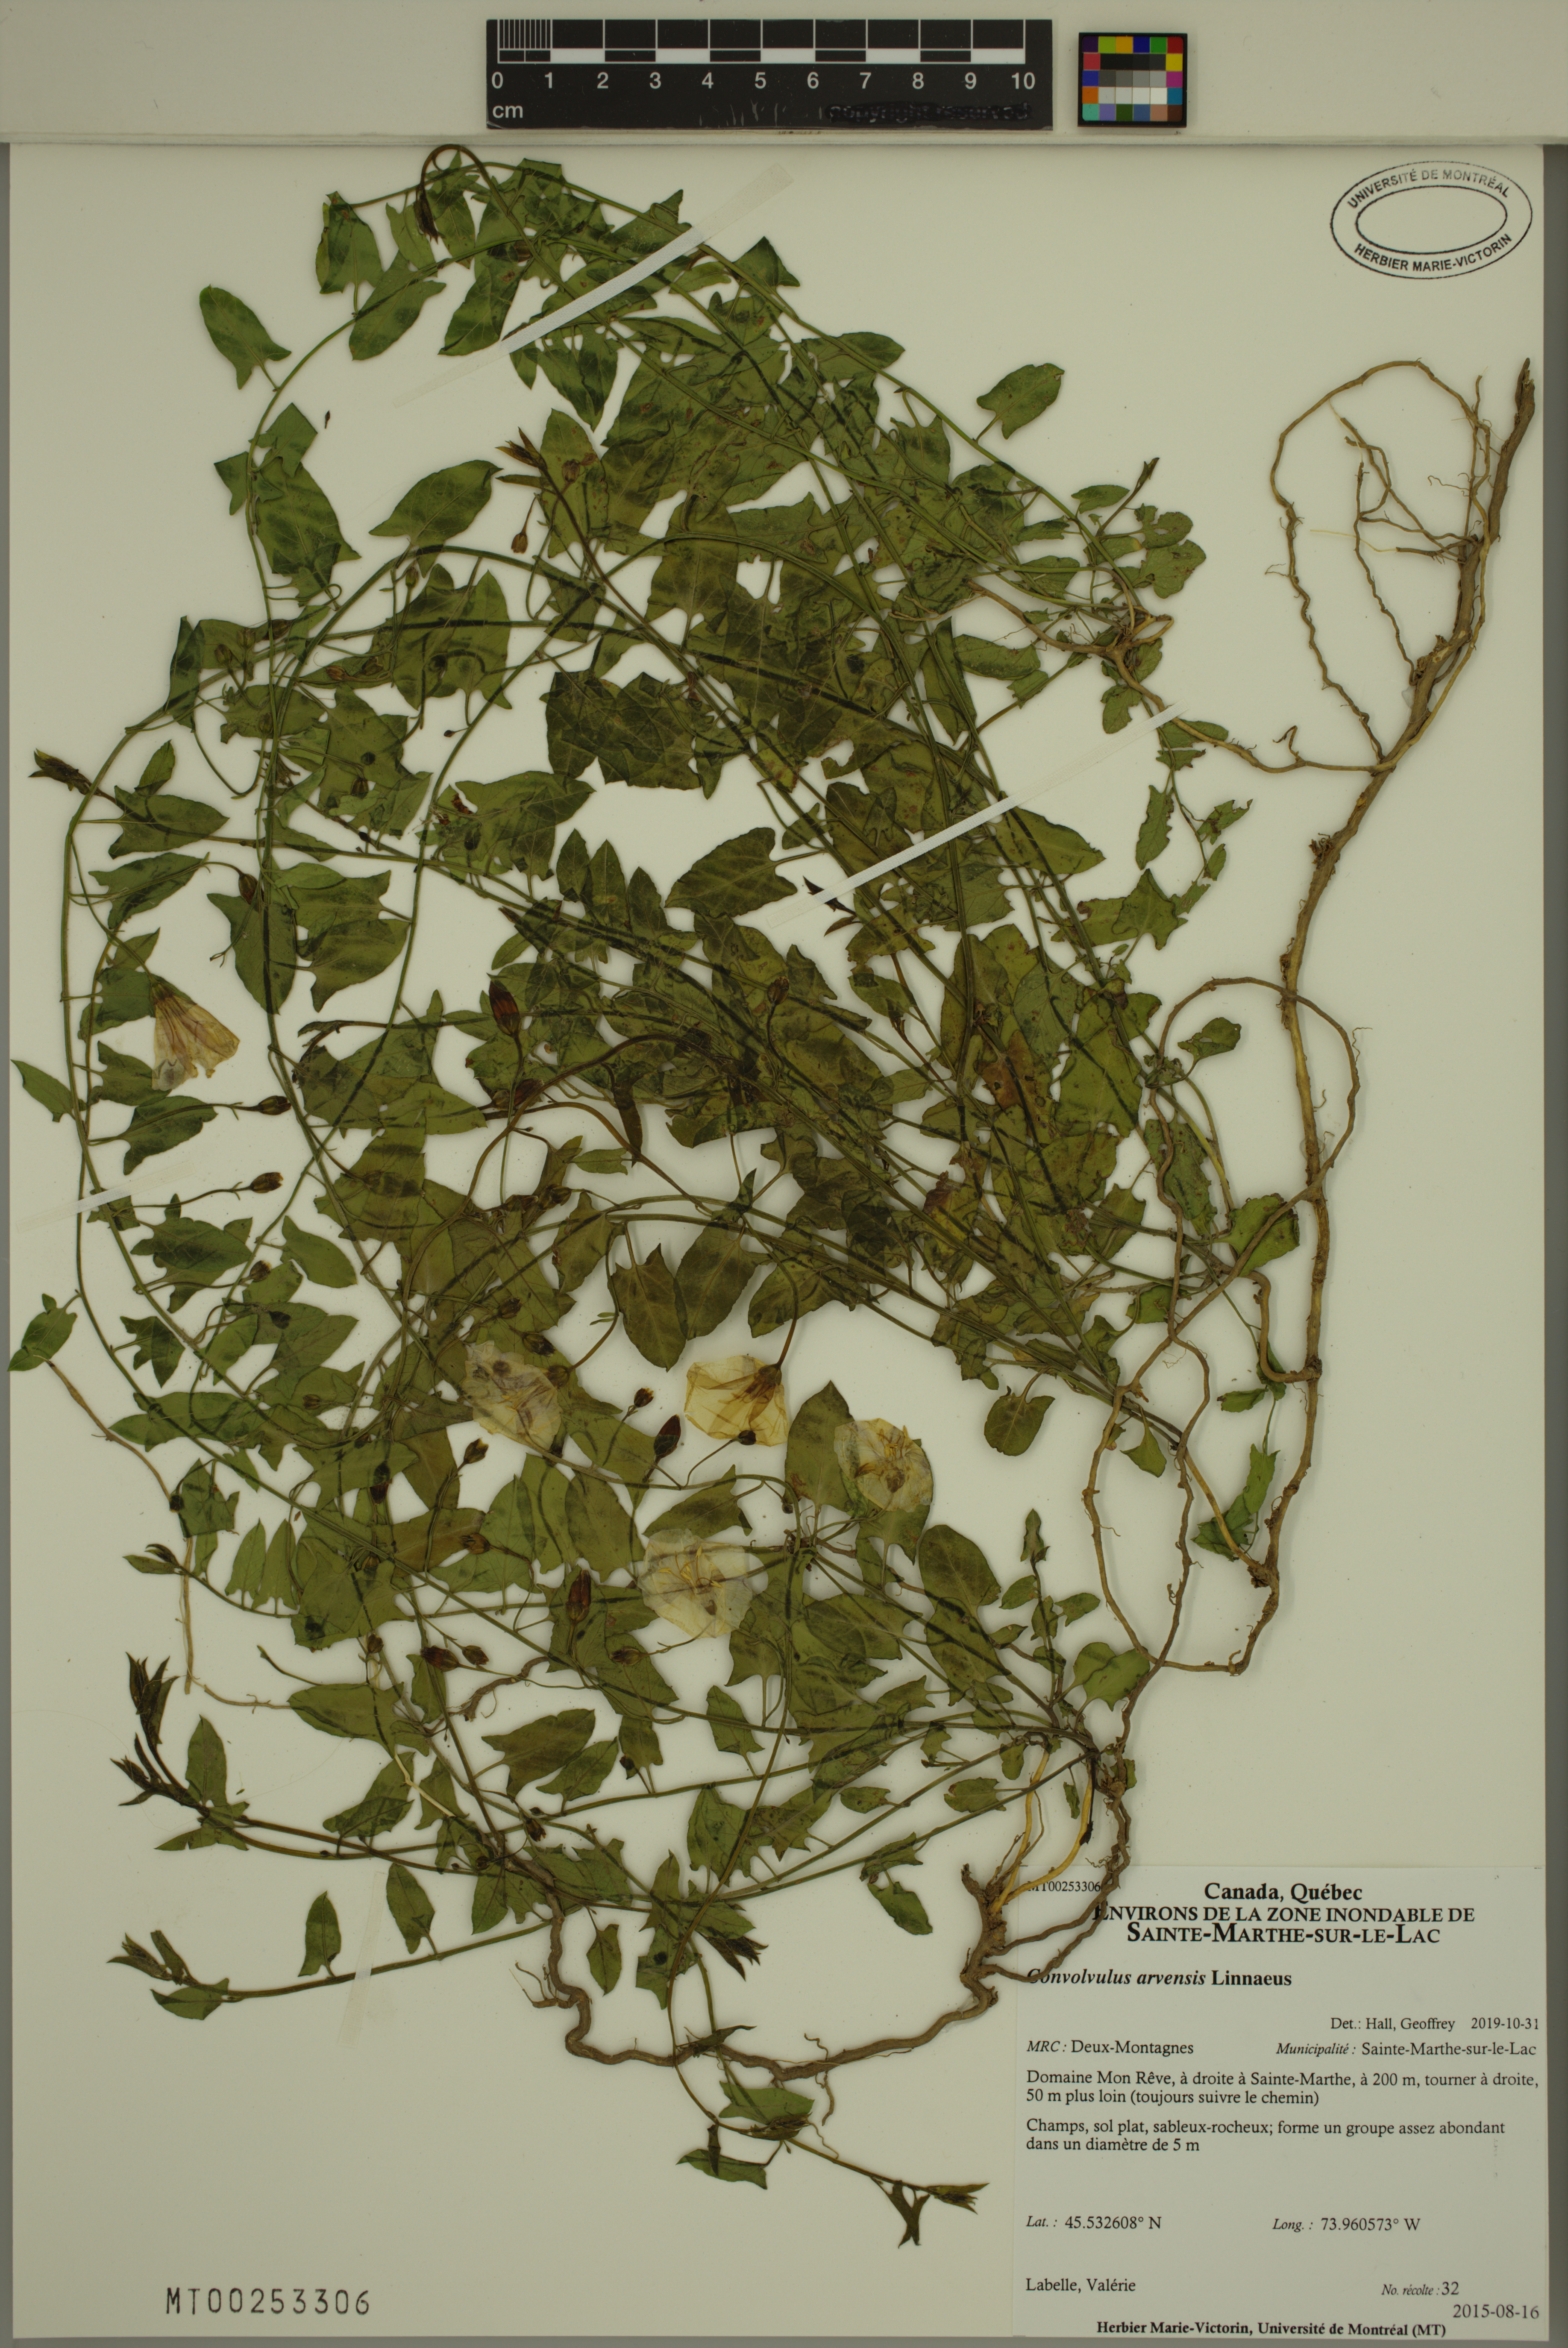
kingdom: Plantae
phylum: Tracheophyta
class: Magnoliopsida
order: Solanales
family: Convolvulaceae
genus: Convolvulus
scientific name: Convolvulus arvensis
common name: Field bindweed
